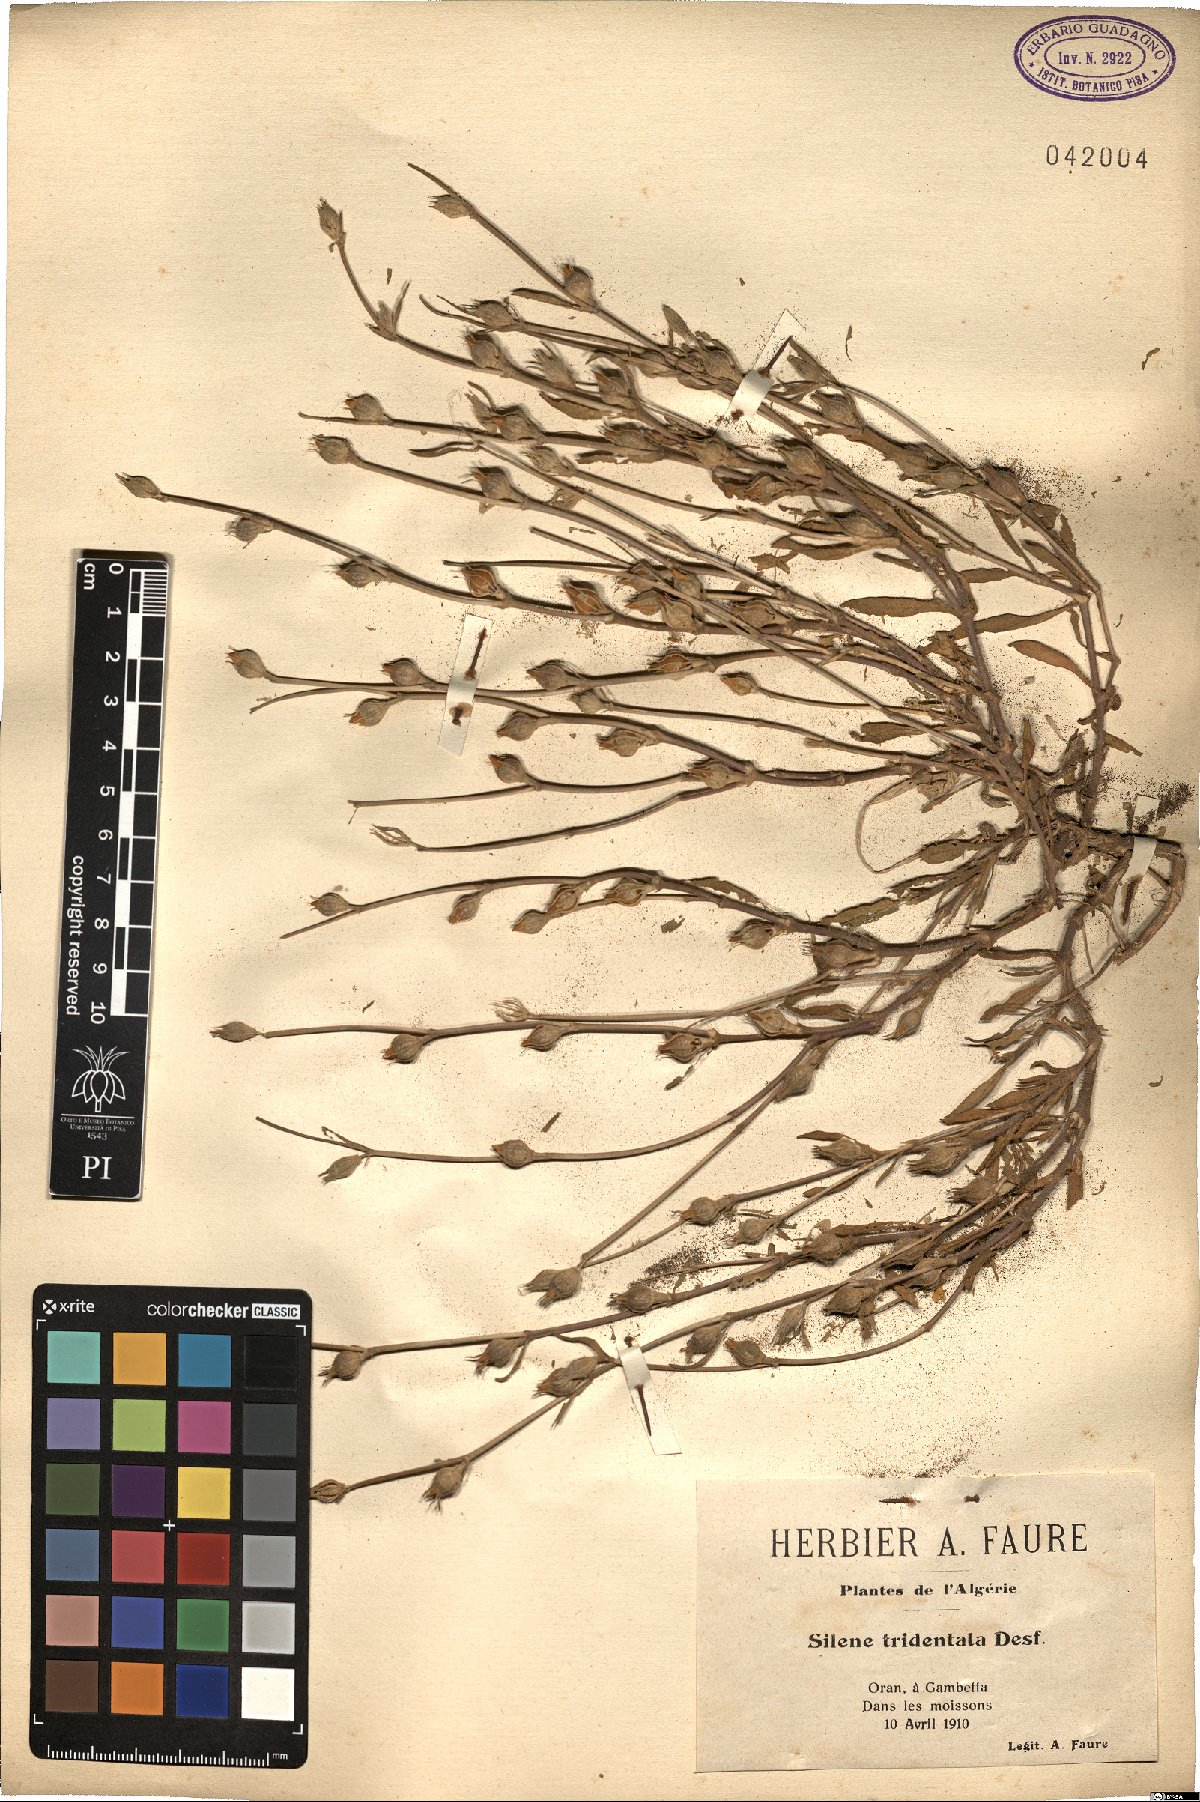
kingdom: Plantae
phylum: Tracheophyta
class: Magnoliopsida
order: Caryophyllales
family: Caryophyllaceae
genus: Silene
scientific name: Silene tridentata
